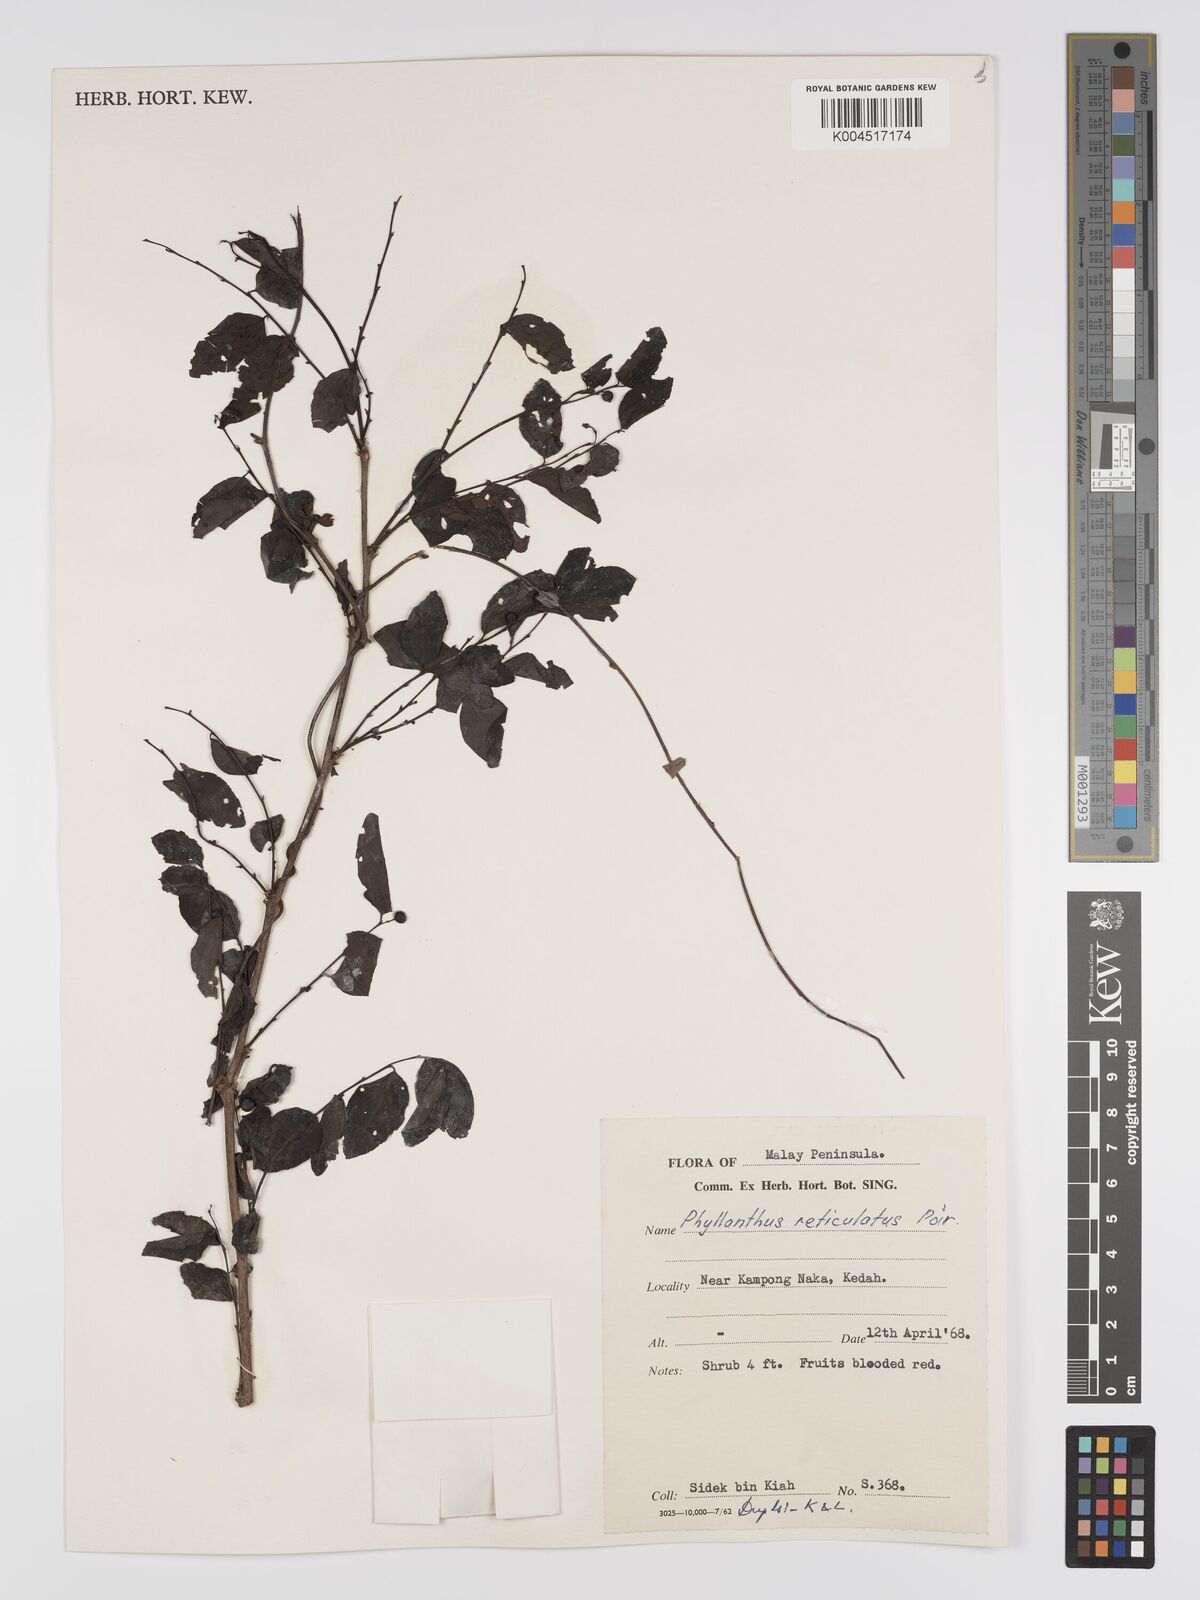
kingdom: Plantae
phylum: Tracheophyta
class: Magnoliopsida
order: Malpighiales
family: Phyllanthaceae
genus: Phyllanthus
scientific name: Phyllanthus microcarpus
